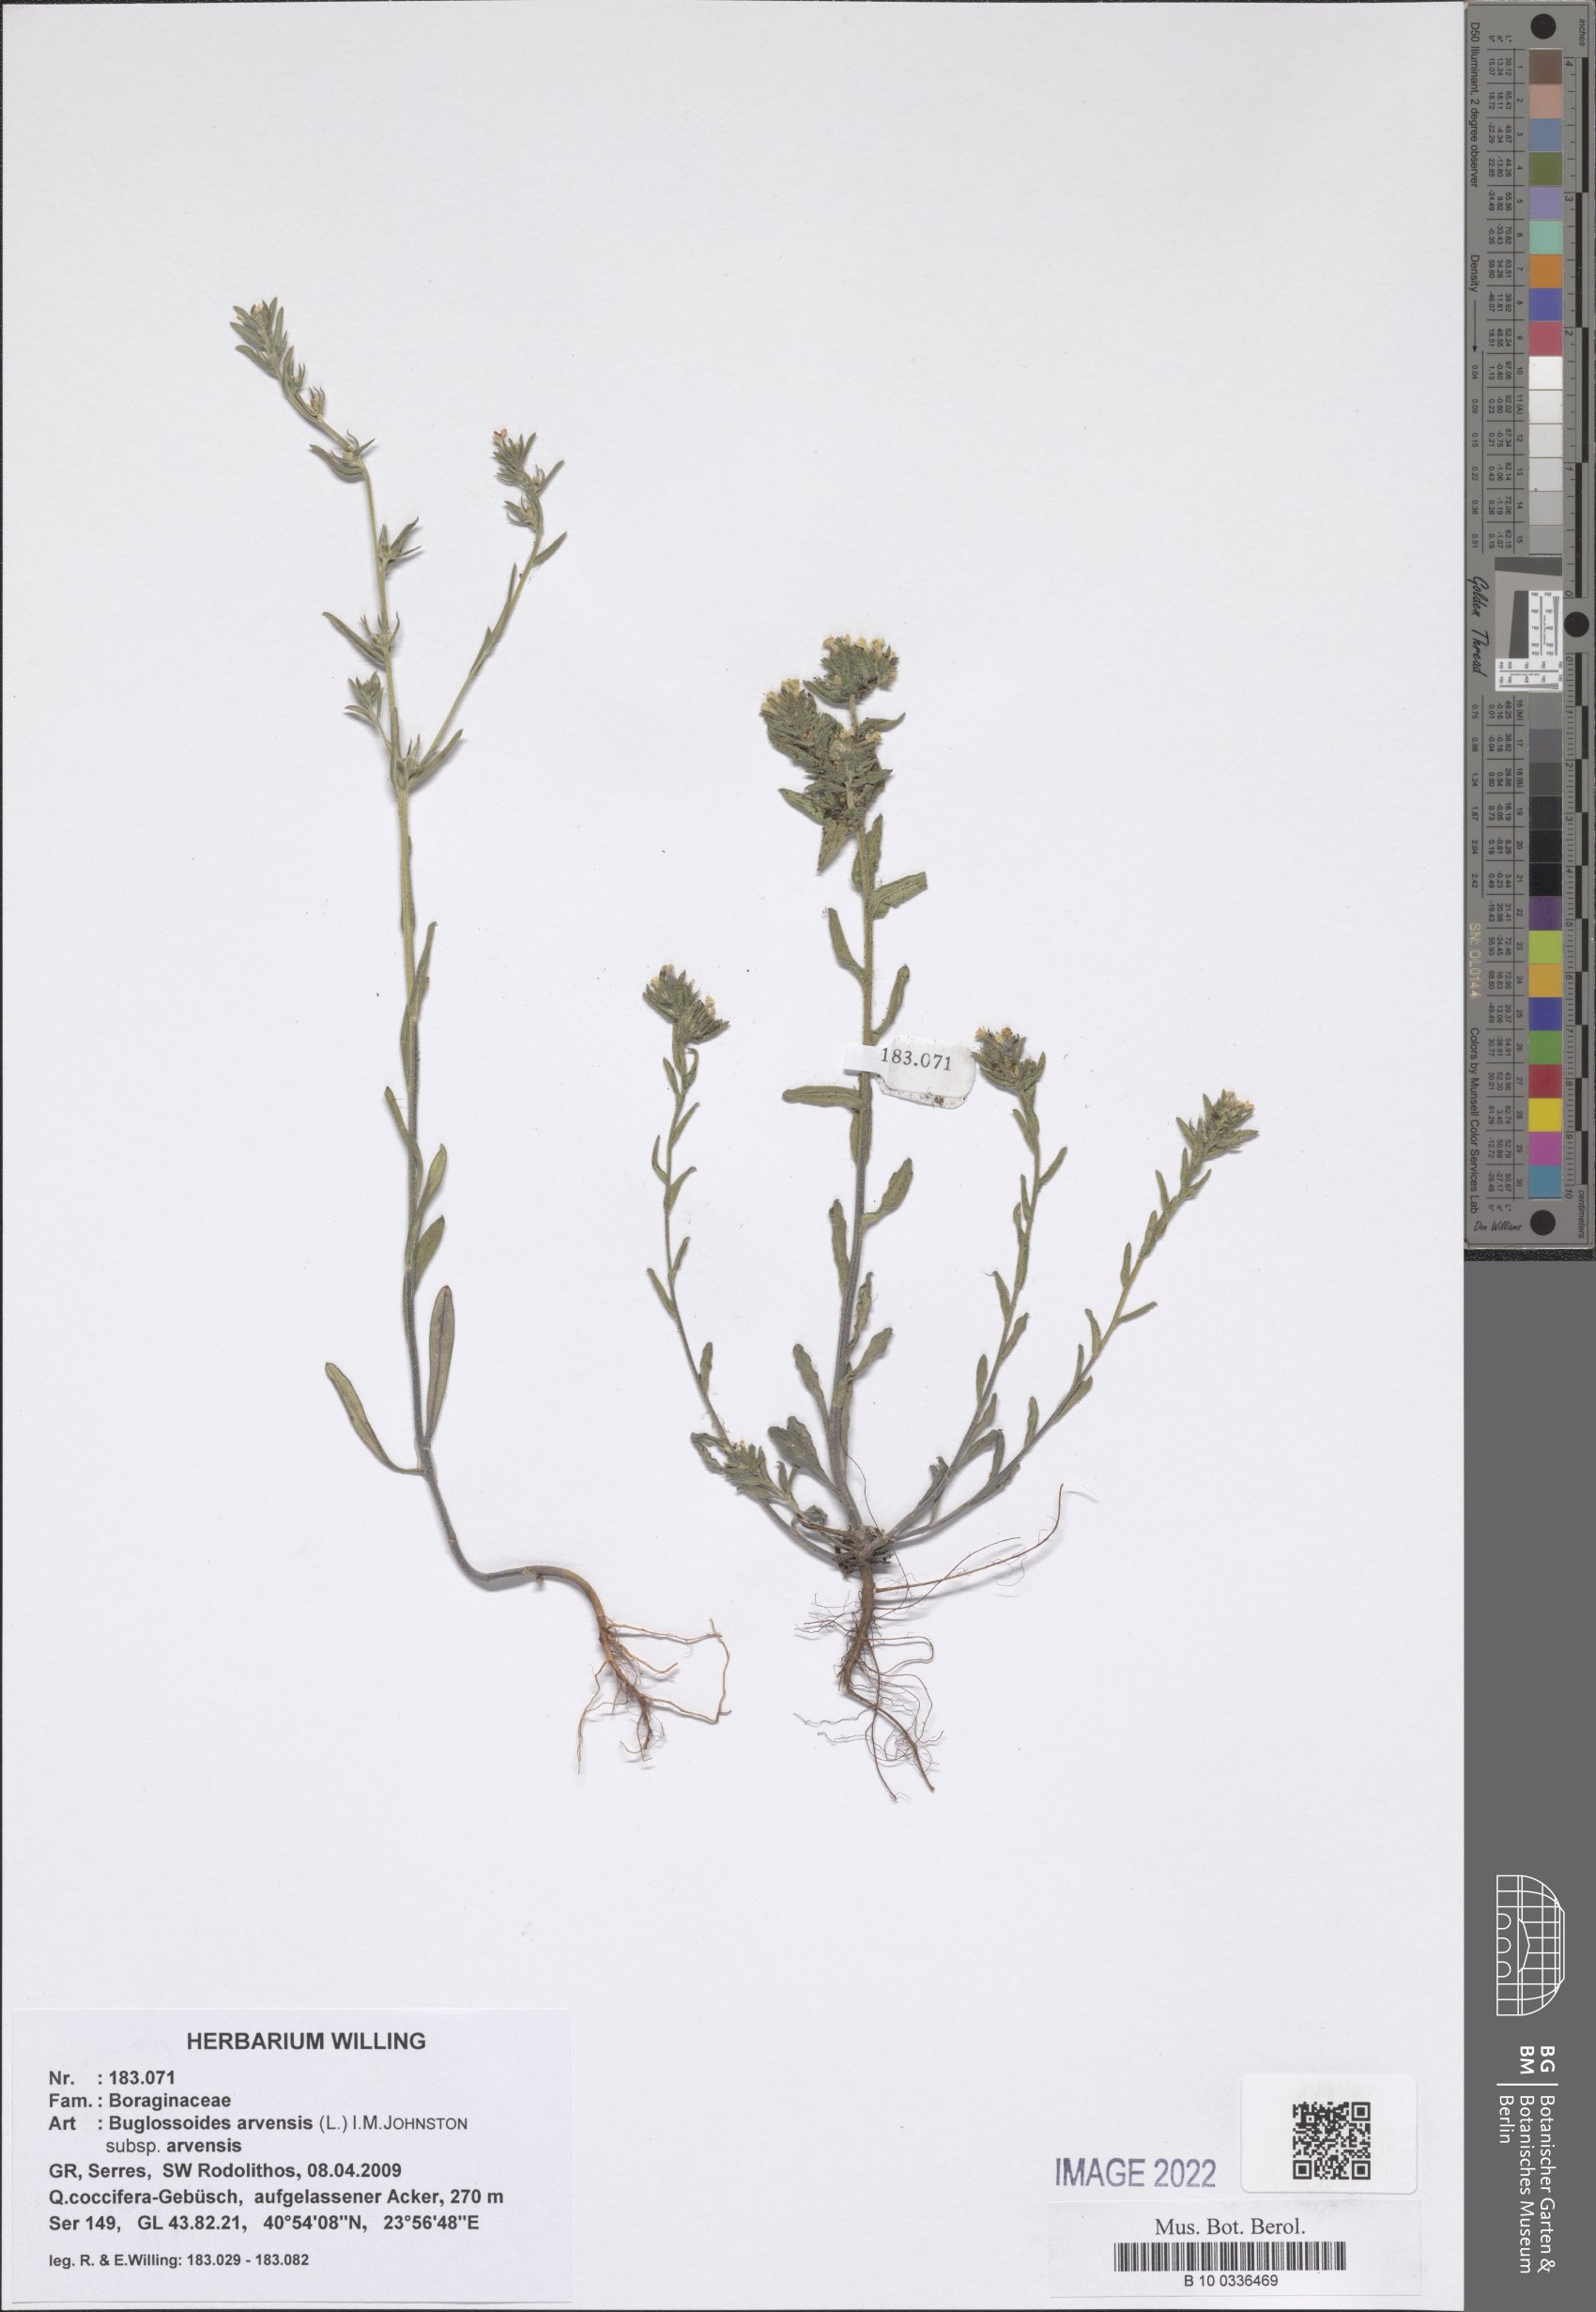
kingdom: Plantae
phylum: Tracheophyta
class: Magnoliopsida
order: Boraginales
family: Boraginaceae
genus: Buglossoides
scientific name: Buglossoides arvensis
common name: Corn gromwell
